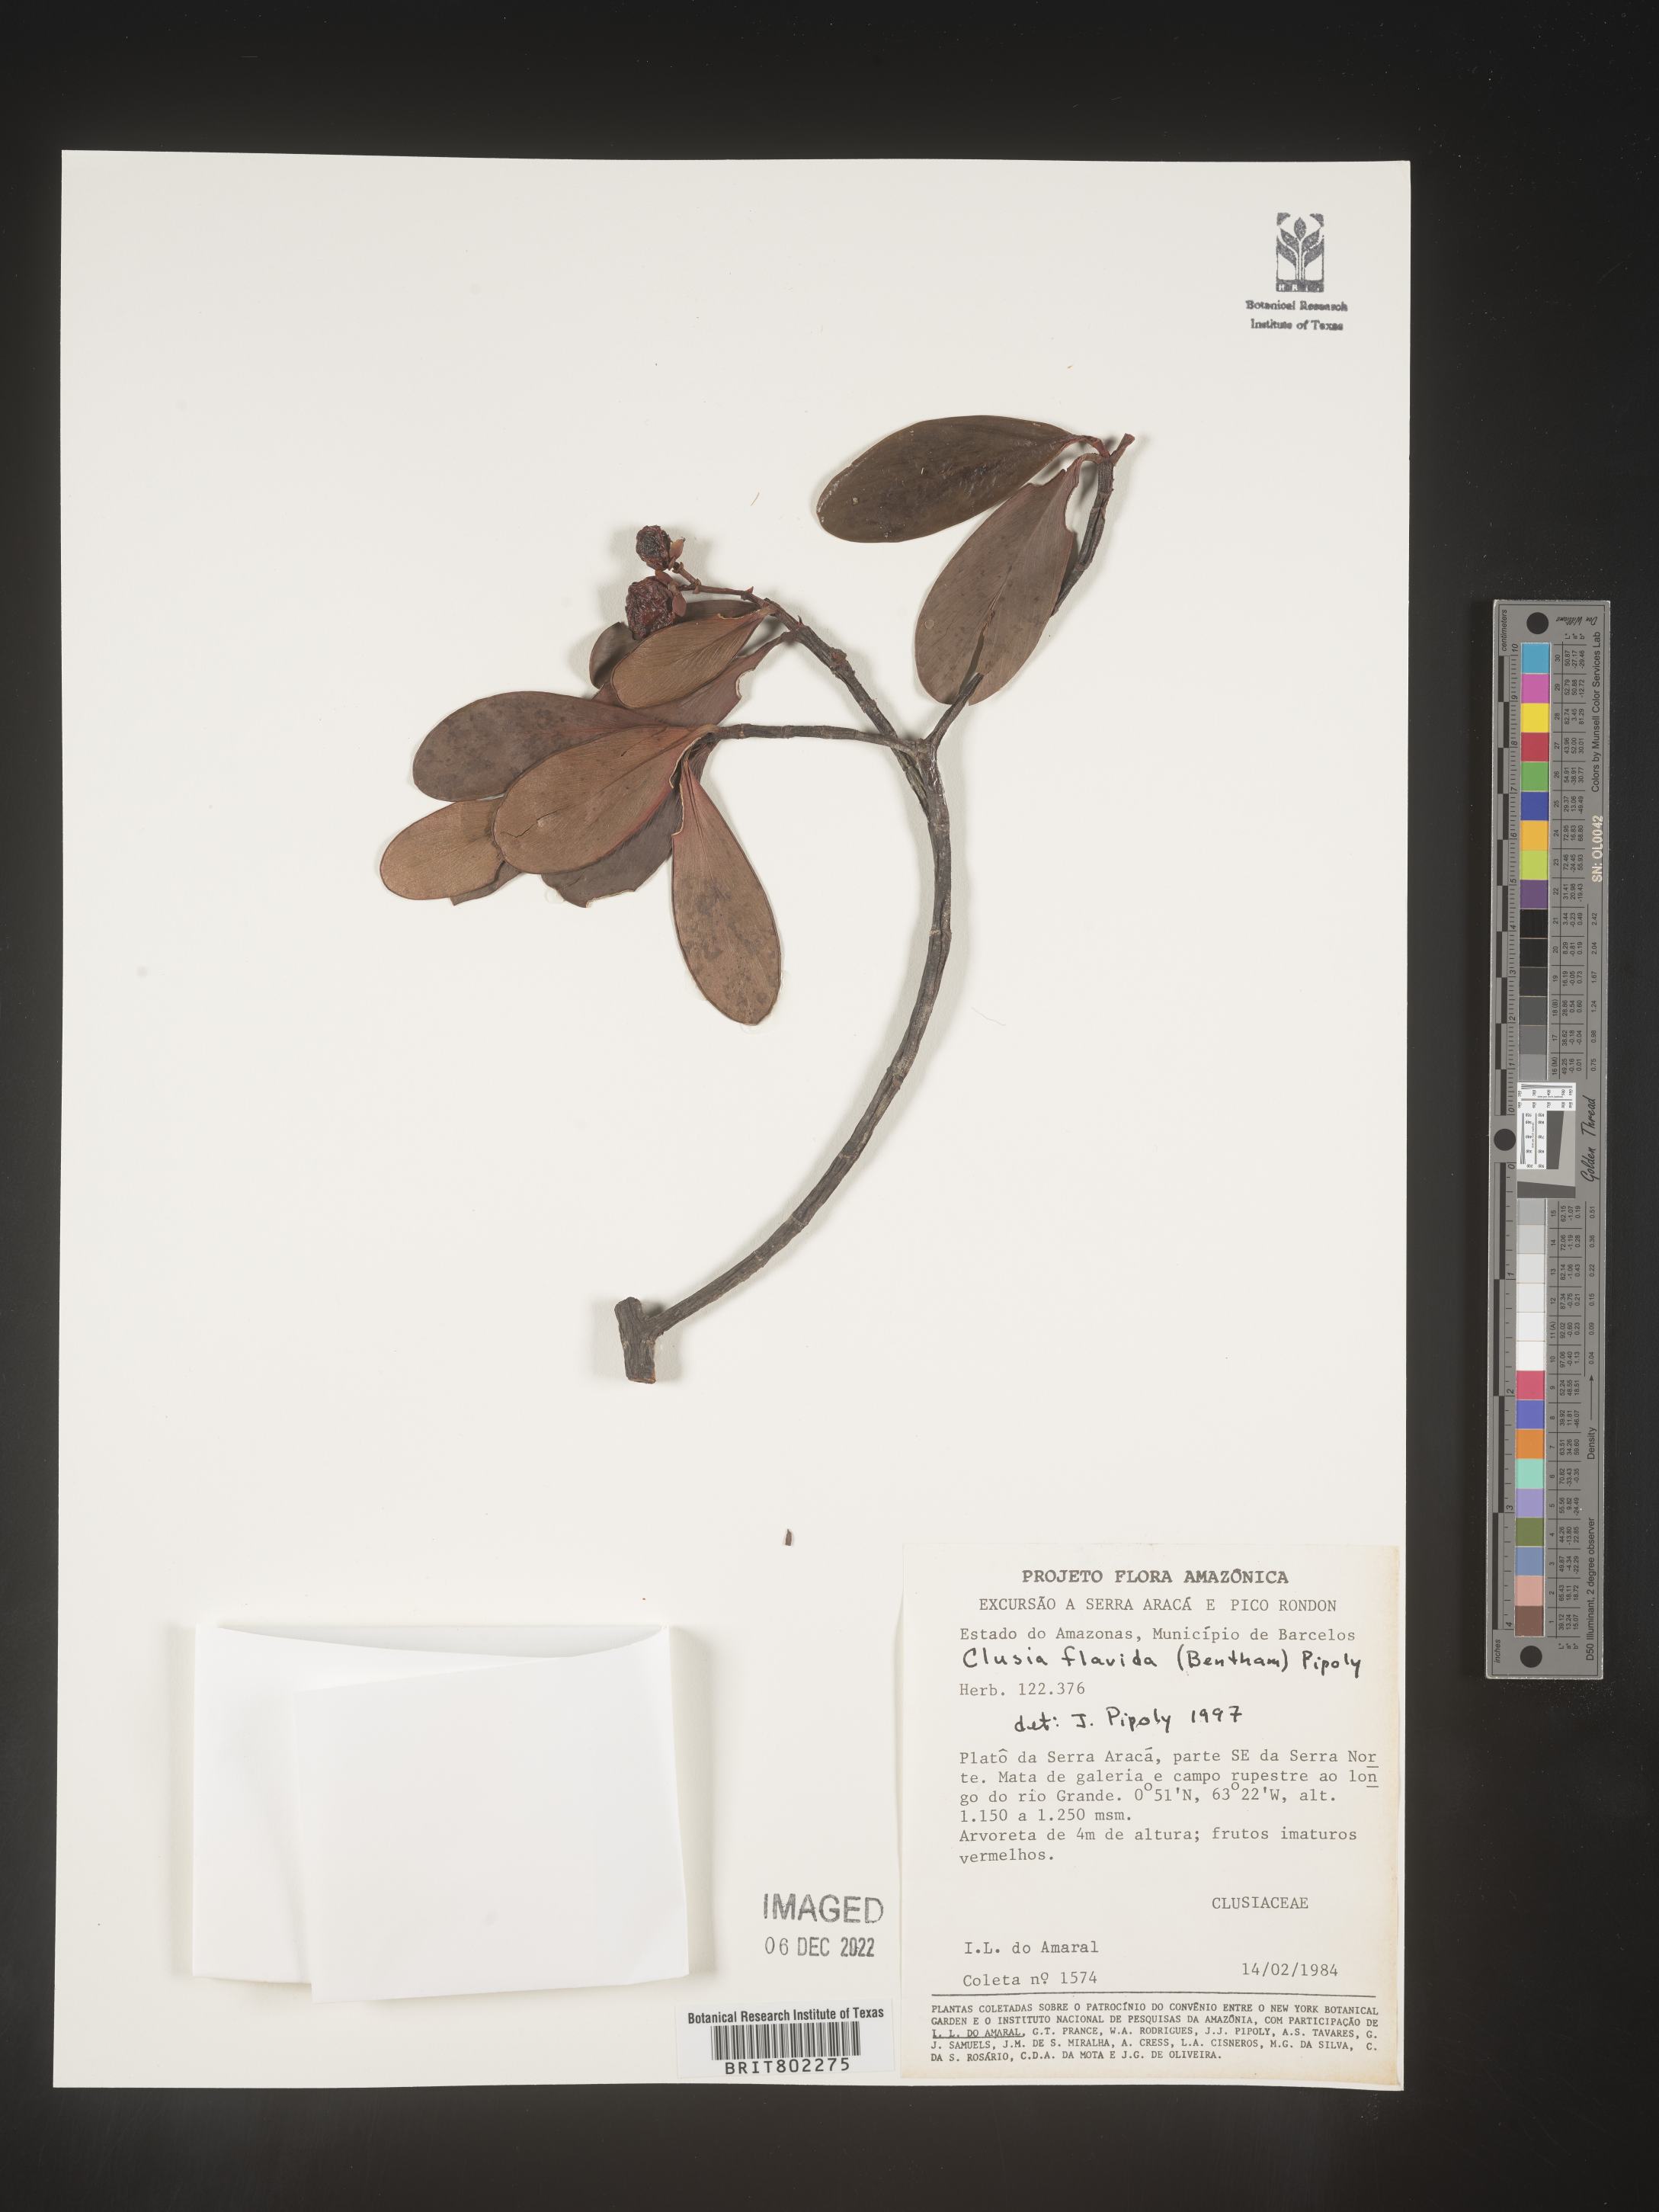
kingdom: Plantae
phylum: Tracheophyta
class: Magnoliopsida
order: Malpighiales
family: Clusiaceae
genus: Clusia
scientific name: Clusia flavida
